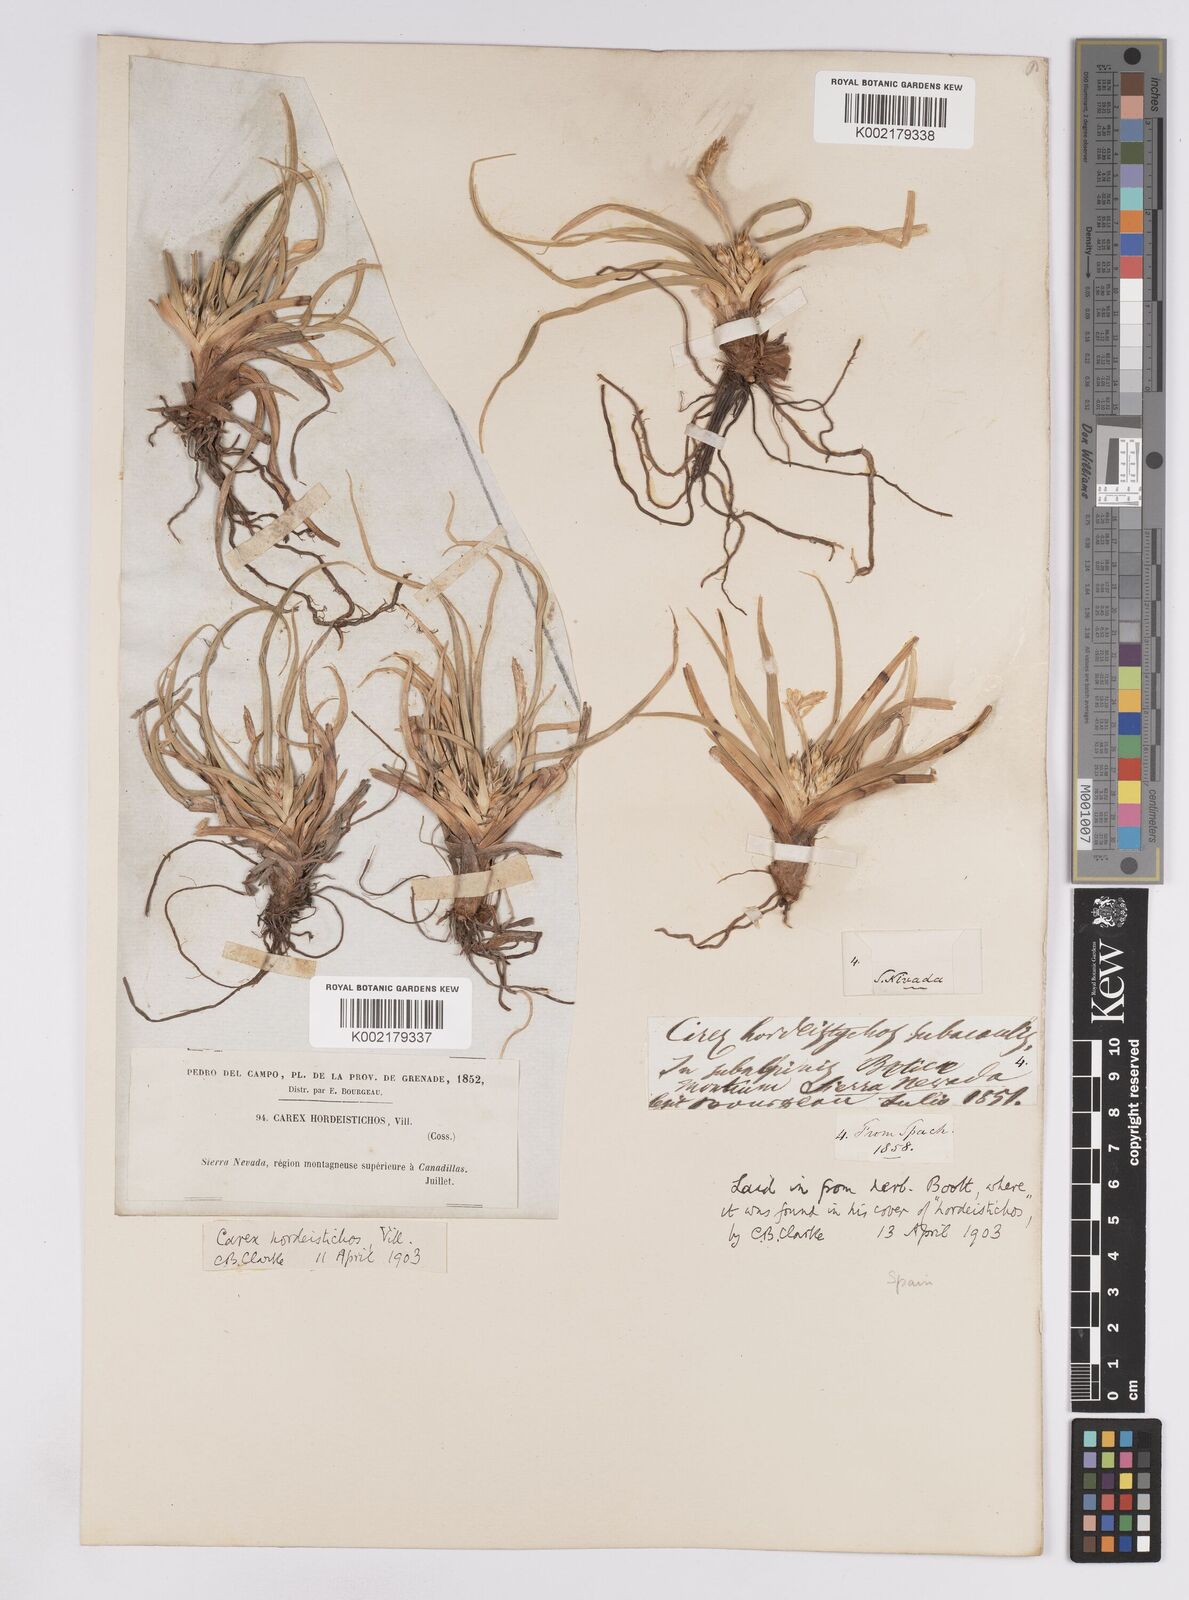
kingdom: Plantae
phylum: Tracheophyta
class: Liliopsida
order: Poales
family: Cyperaceae
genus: Carex
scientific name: Carex hordeistichos
